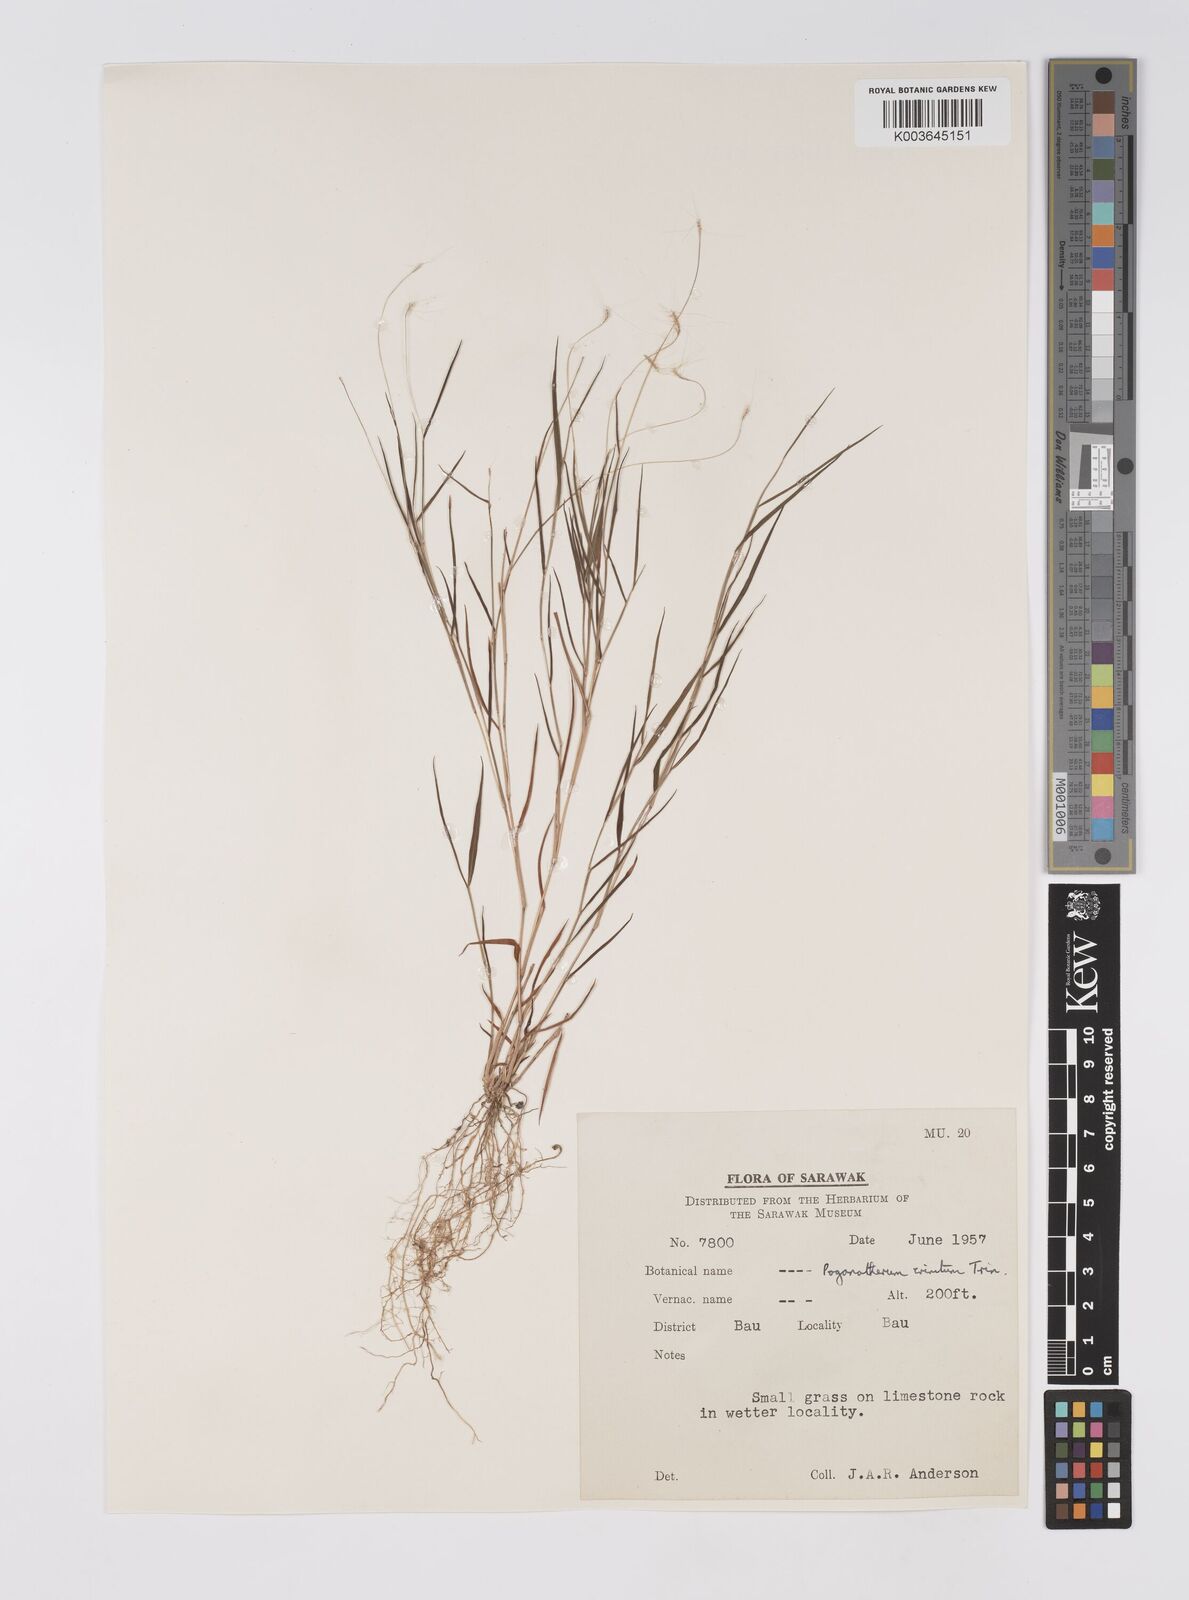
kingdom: Plantae
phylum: Tracheophyta
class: Liliopsida
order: Poales
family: Poaceae
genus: Pogonatherum
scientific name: Pogonatherum crinitum
